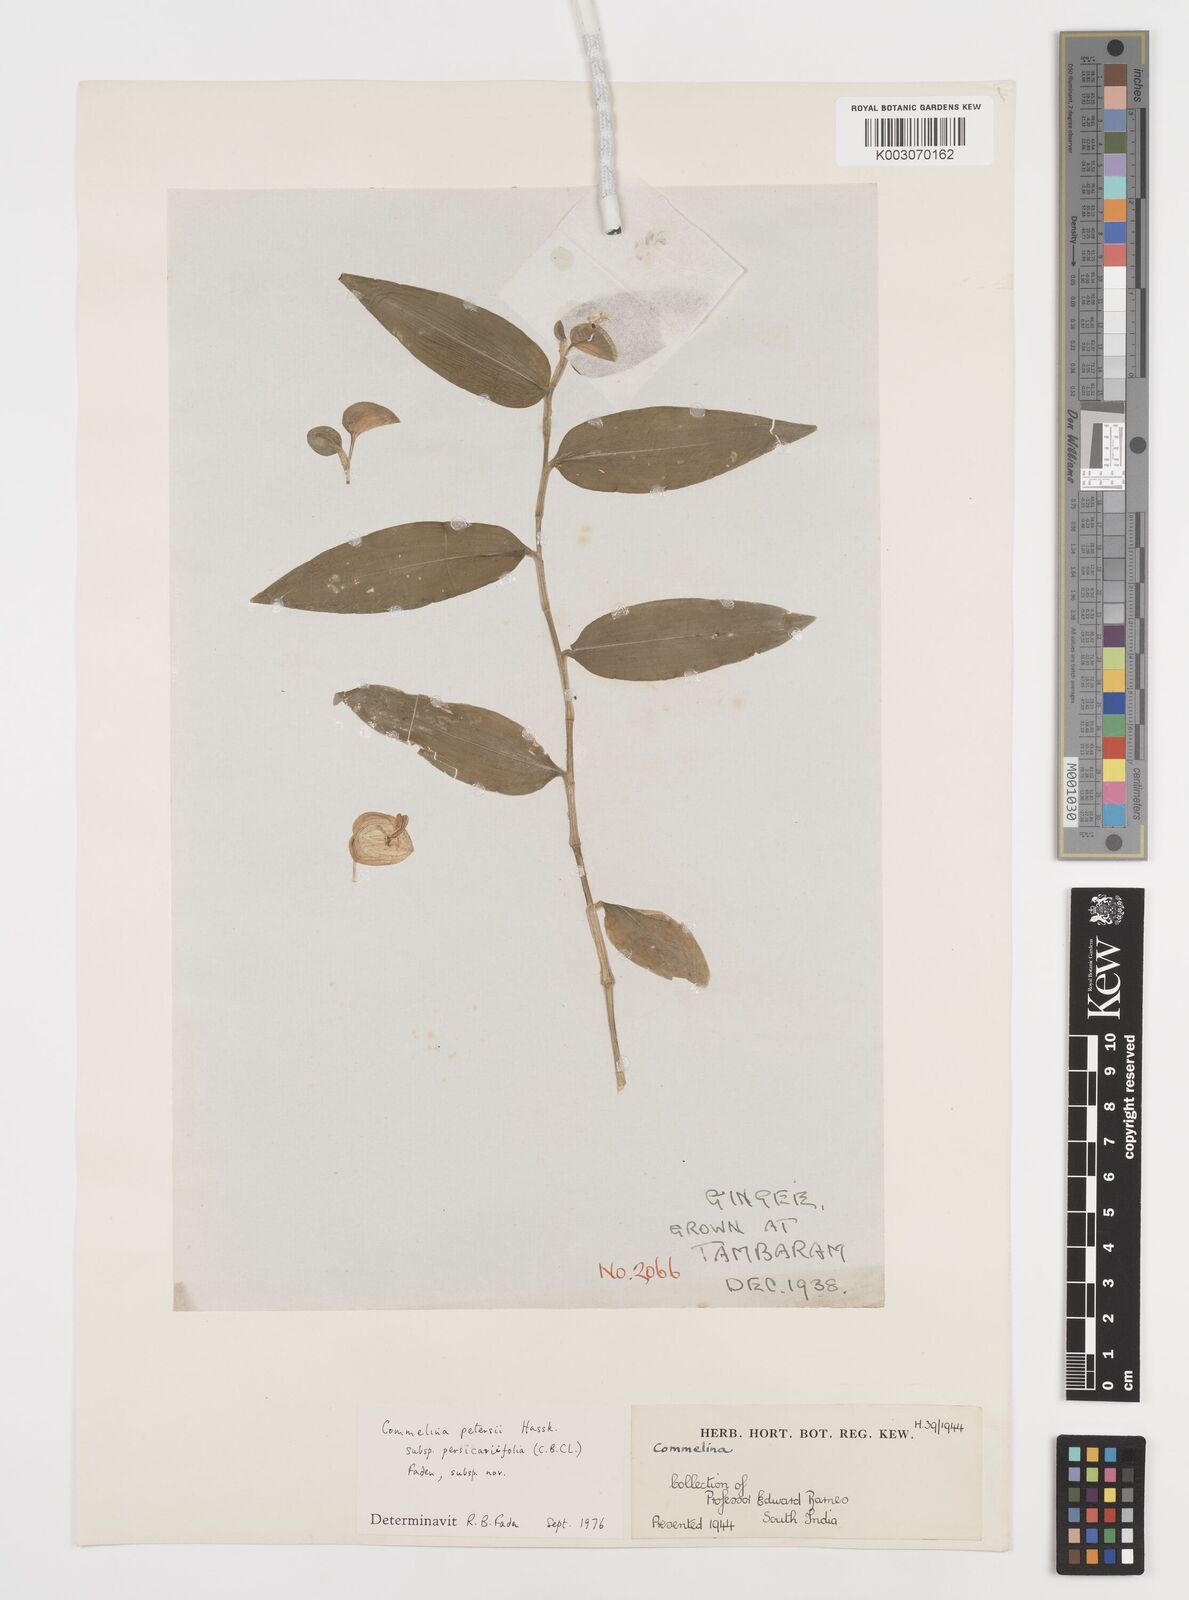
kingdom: Plantae
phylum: Tracheophyta
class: Liliopsida
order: Commelinales
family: Commelinaceae
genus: Commelina
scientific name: Commelina petersii
